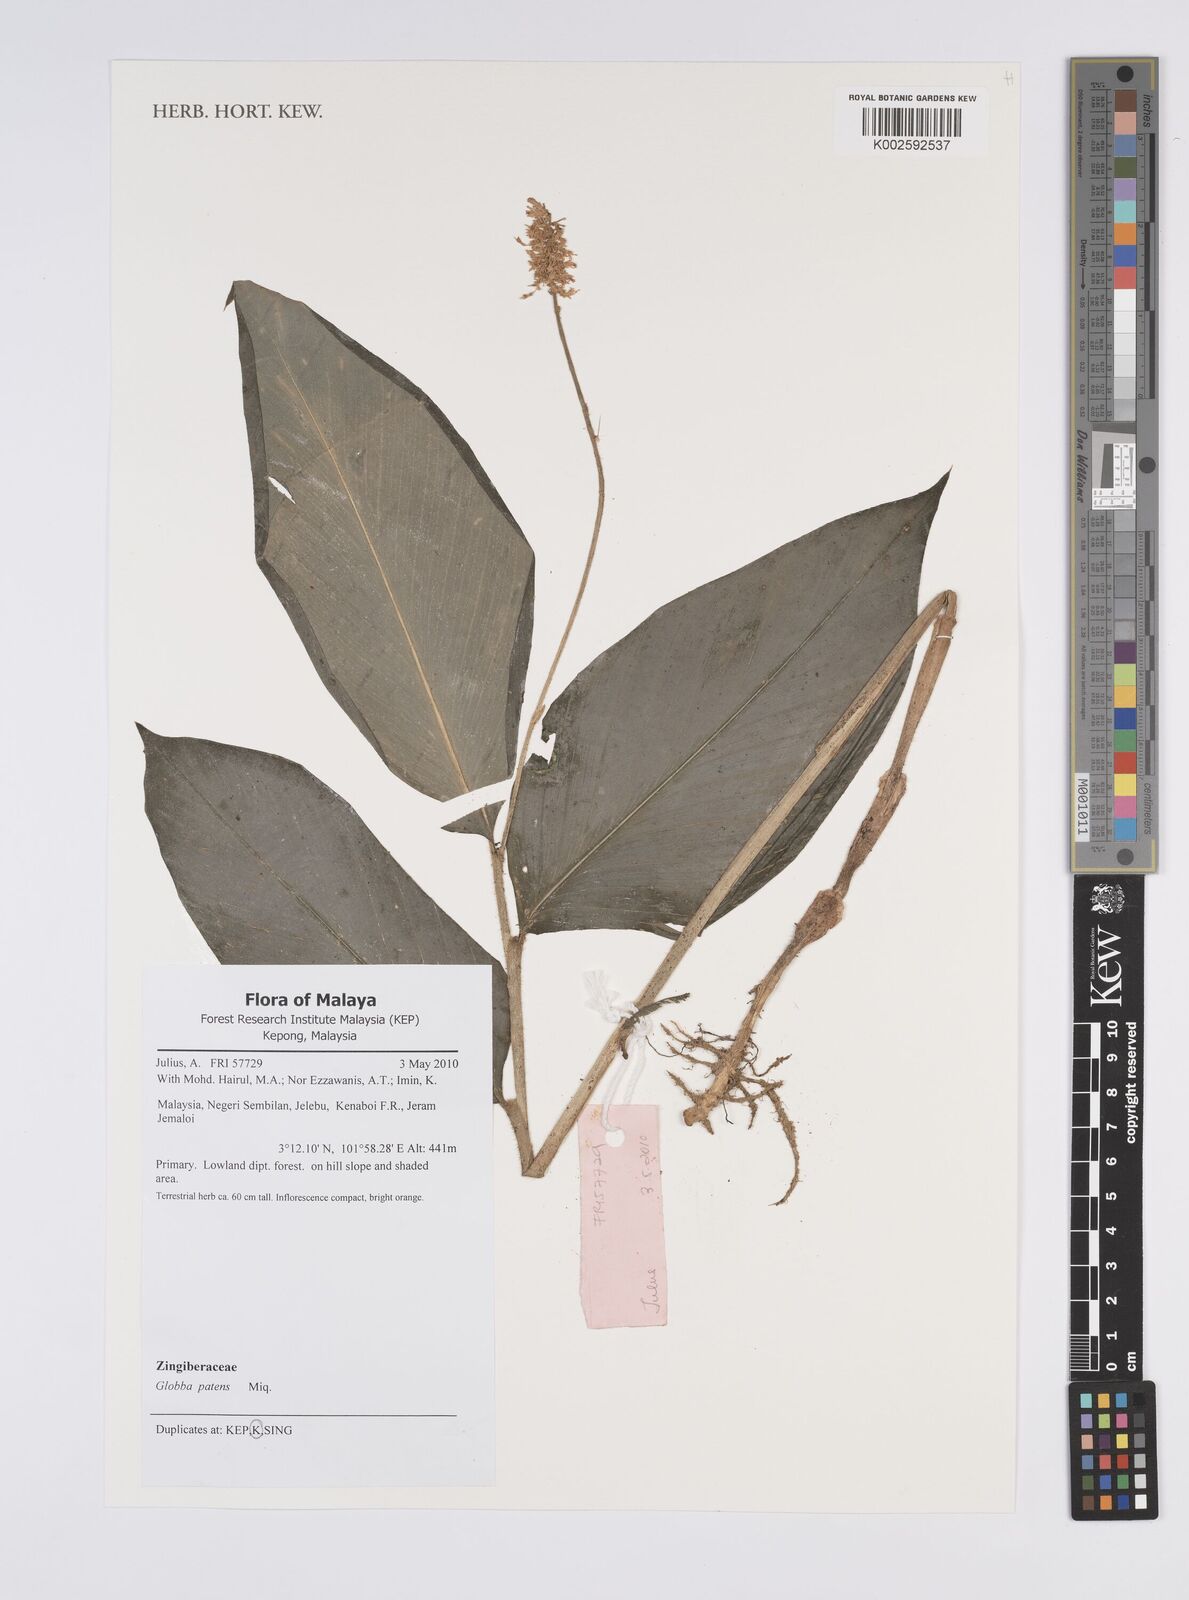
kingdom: Plantae
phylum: Tracheophyta
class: Liliopsida
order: Zingiberales
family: Zingiberaceae
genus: Globba
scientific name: Globba patens
